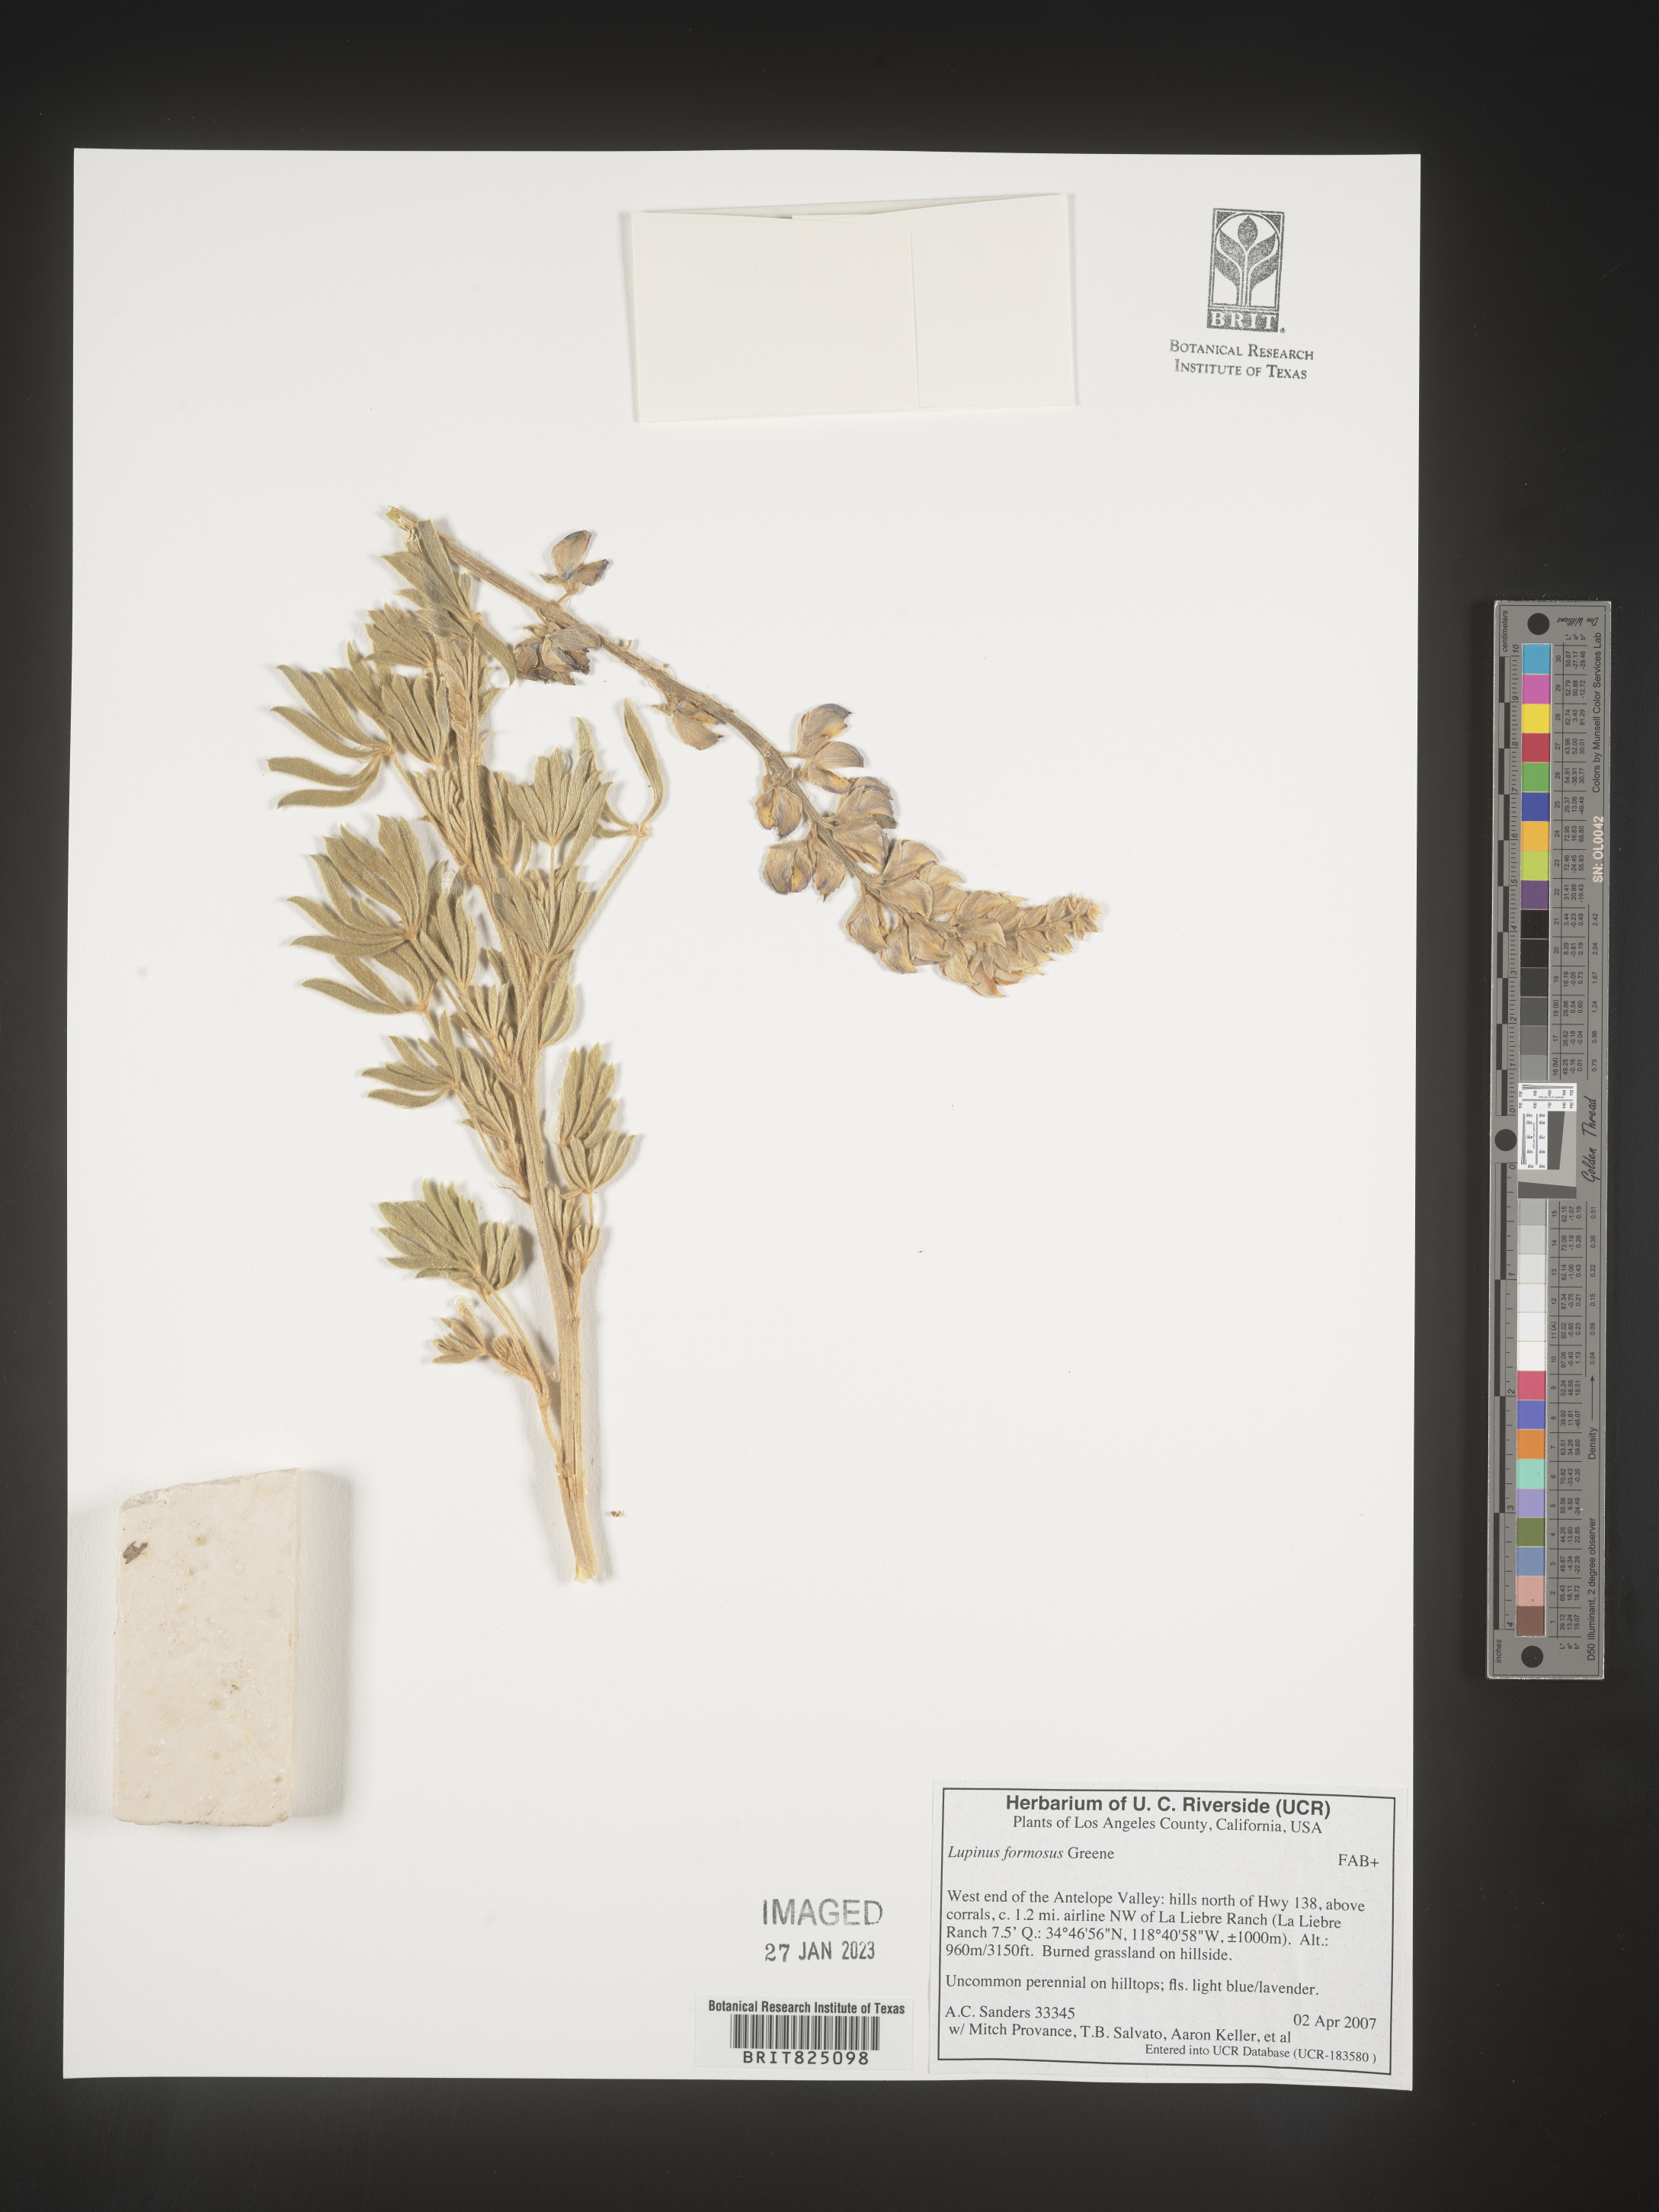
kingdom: Plantae
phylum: Tracheophyta
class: Magnoliopsida
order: Fabales
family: Fabaceae
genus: Lupinus
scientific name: Lupinus
